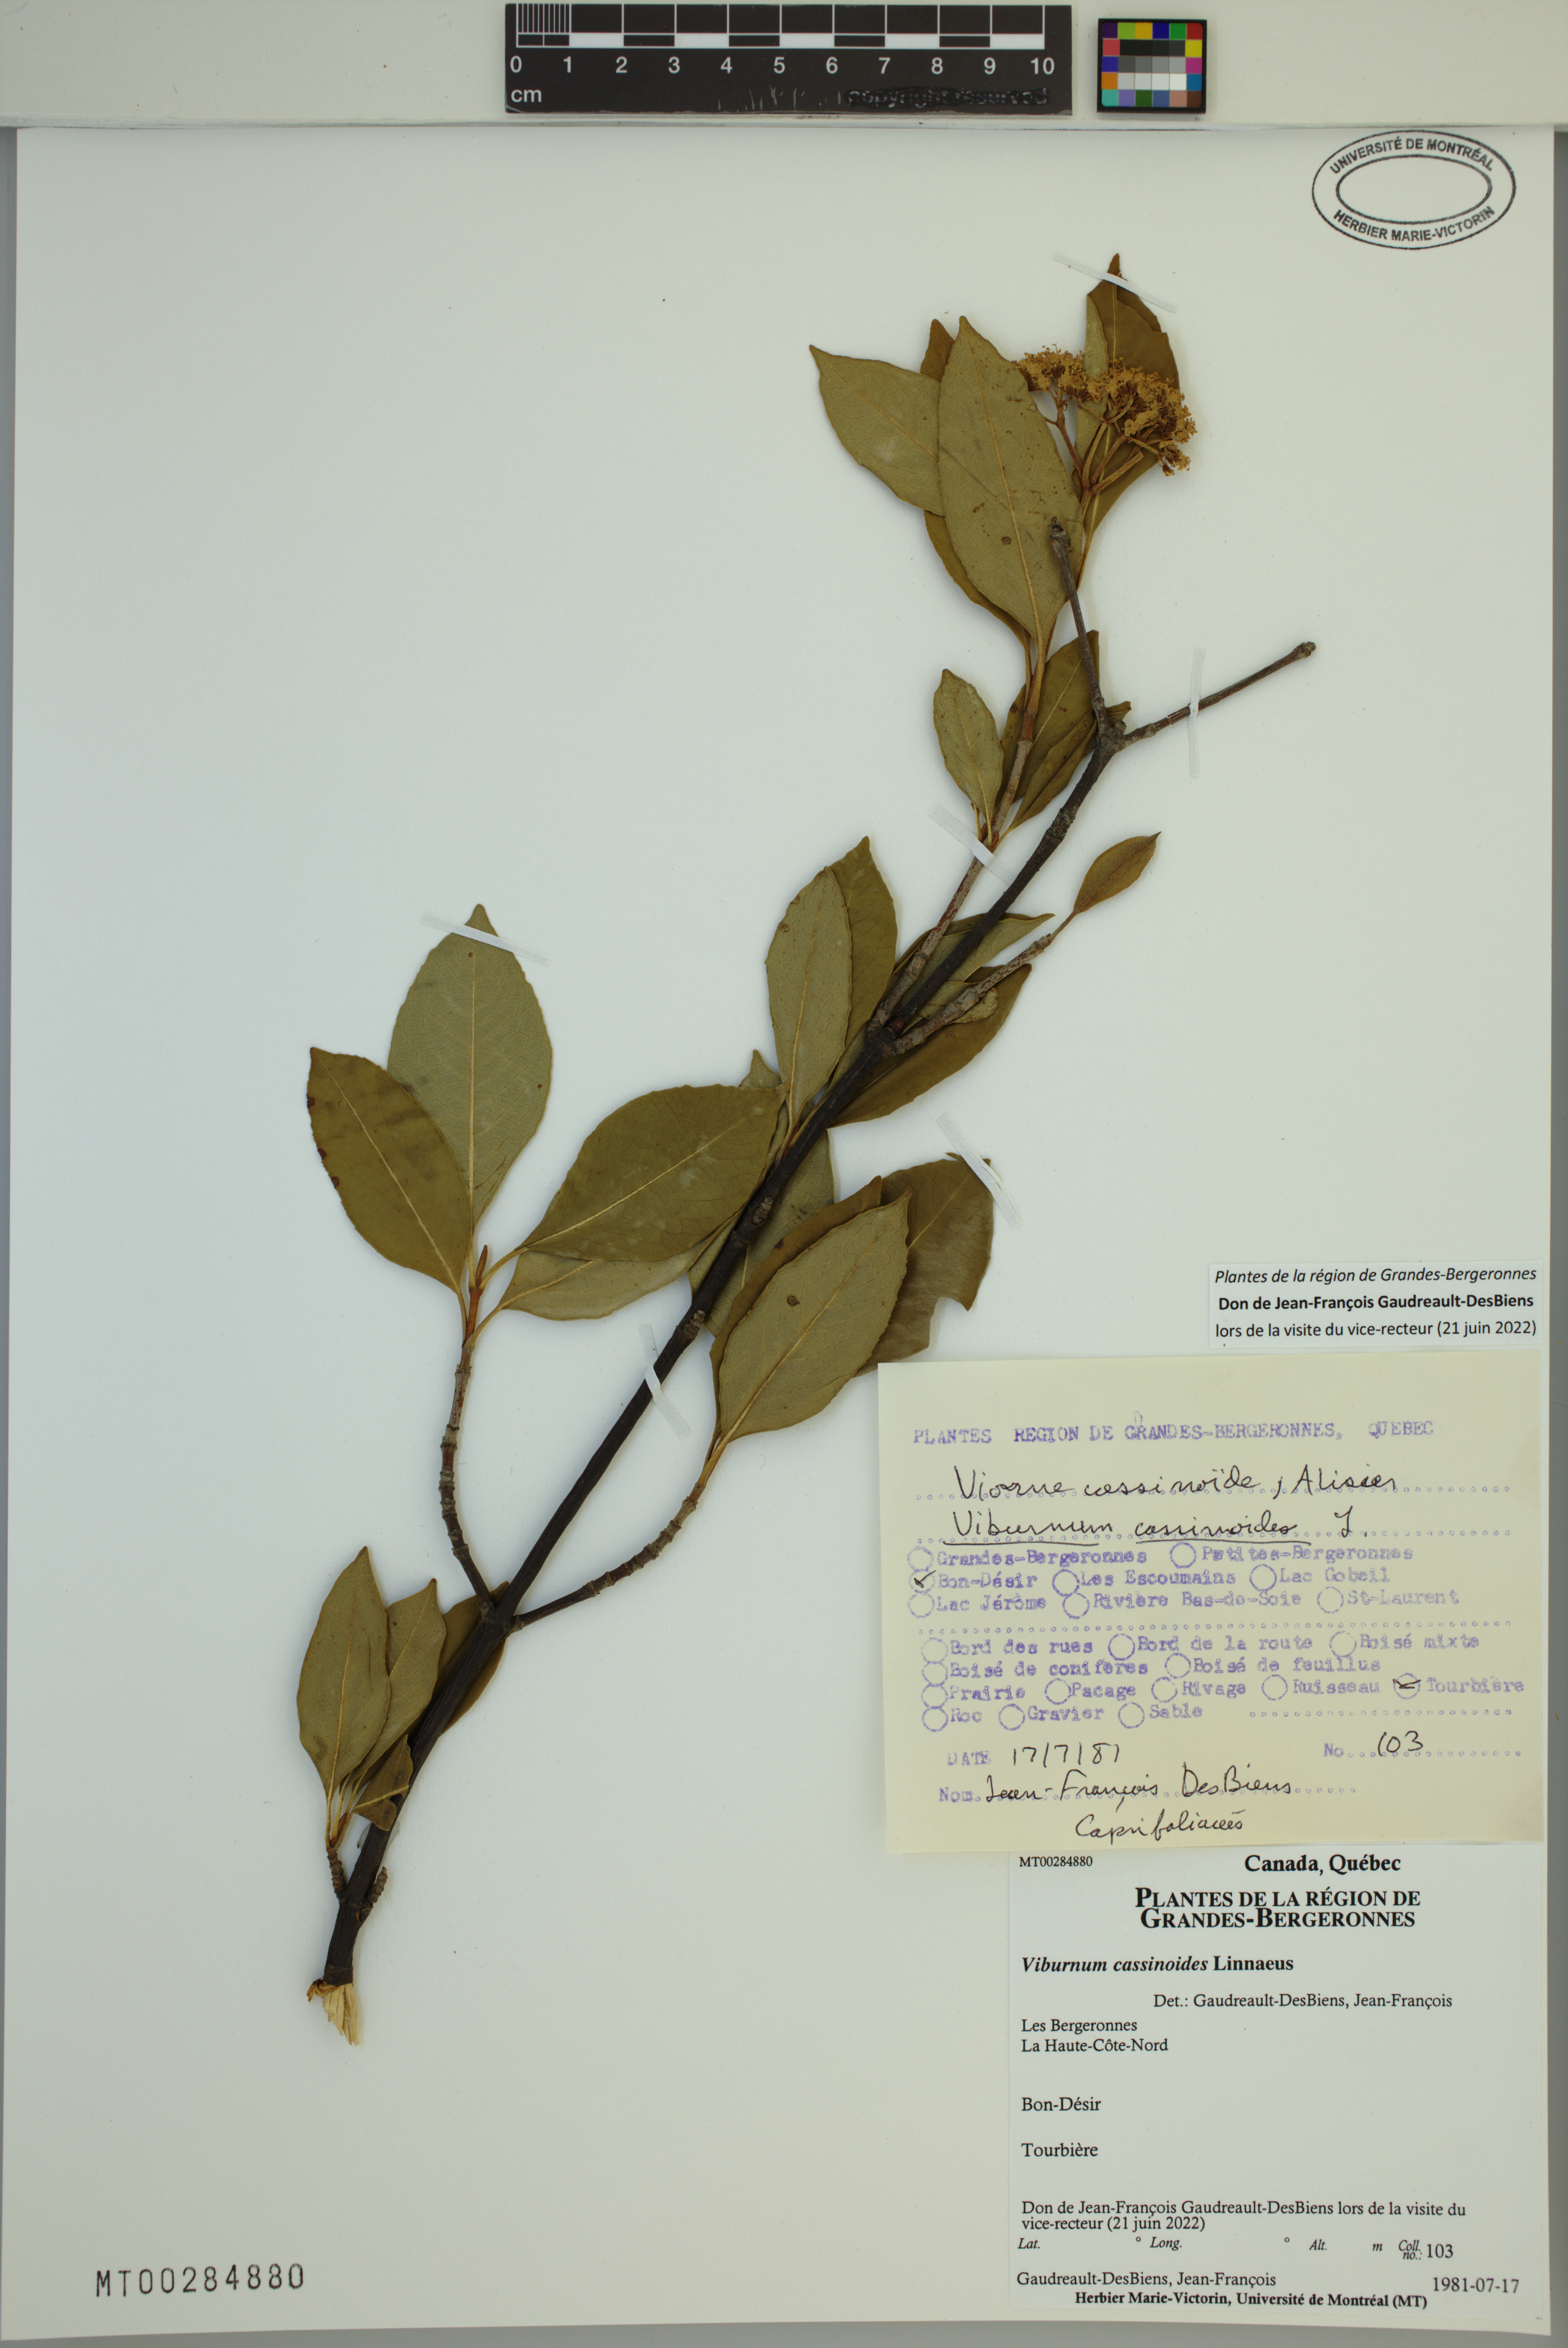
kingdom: Plantae
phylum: Tracheophyta
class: Magnoliopsida
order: Dipsacales
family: Viburnaceae
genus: Viburnum
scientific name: Viburnum cassinoides
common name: Swamp haw
